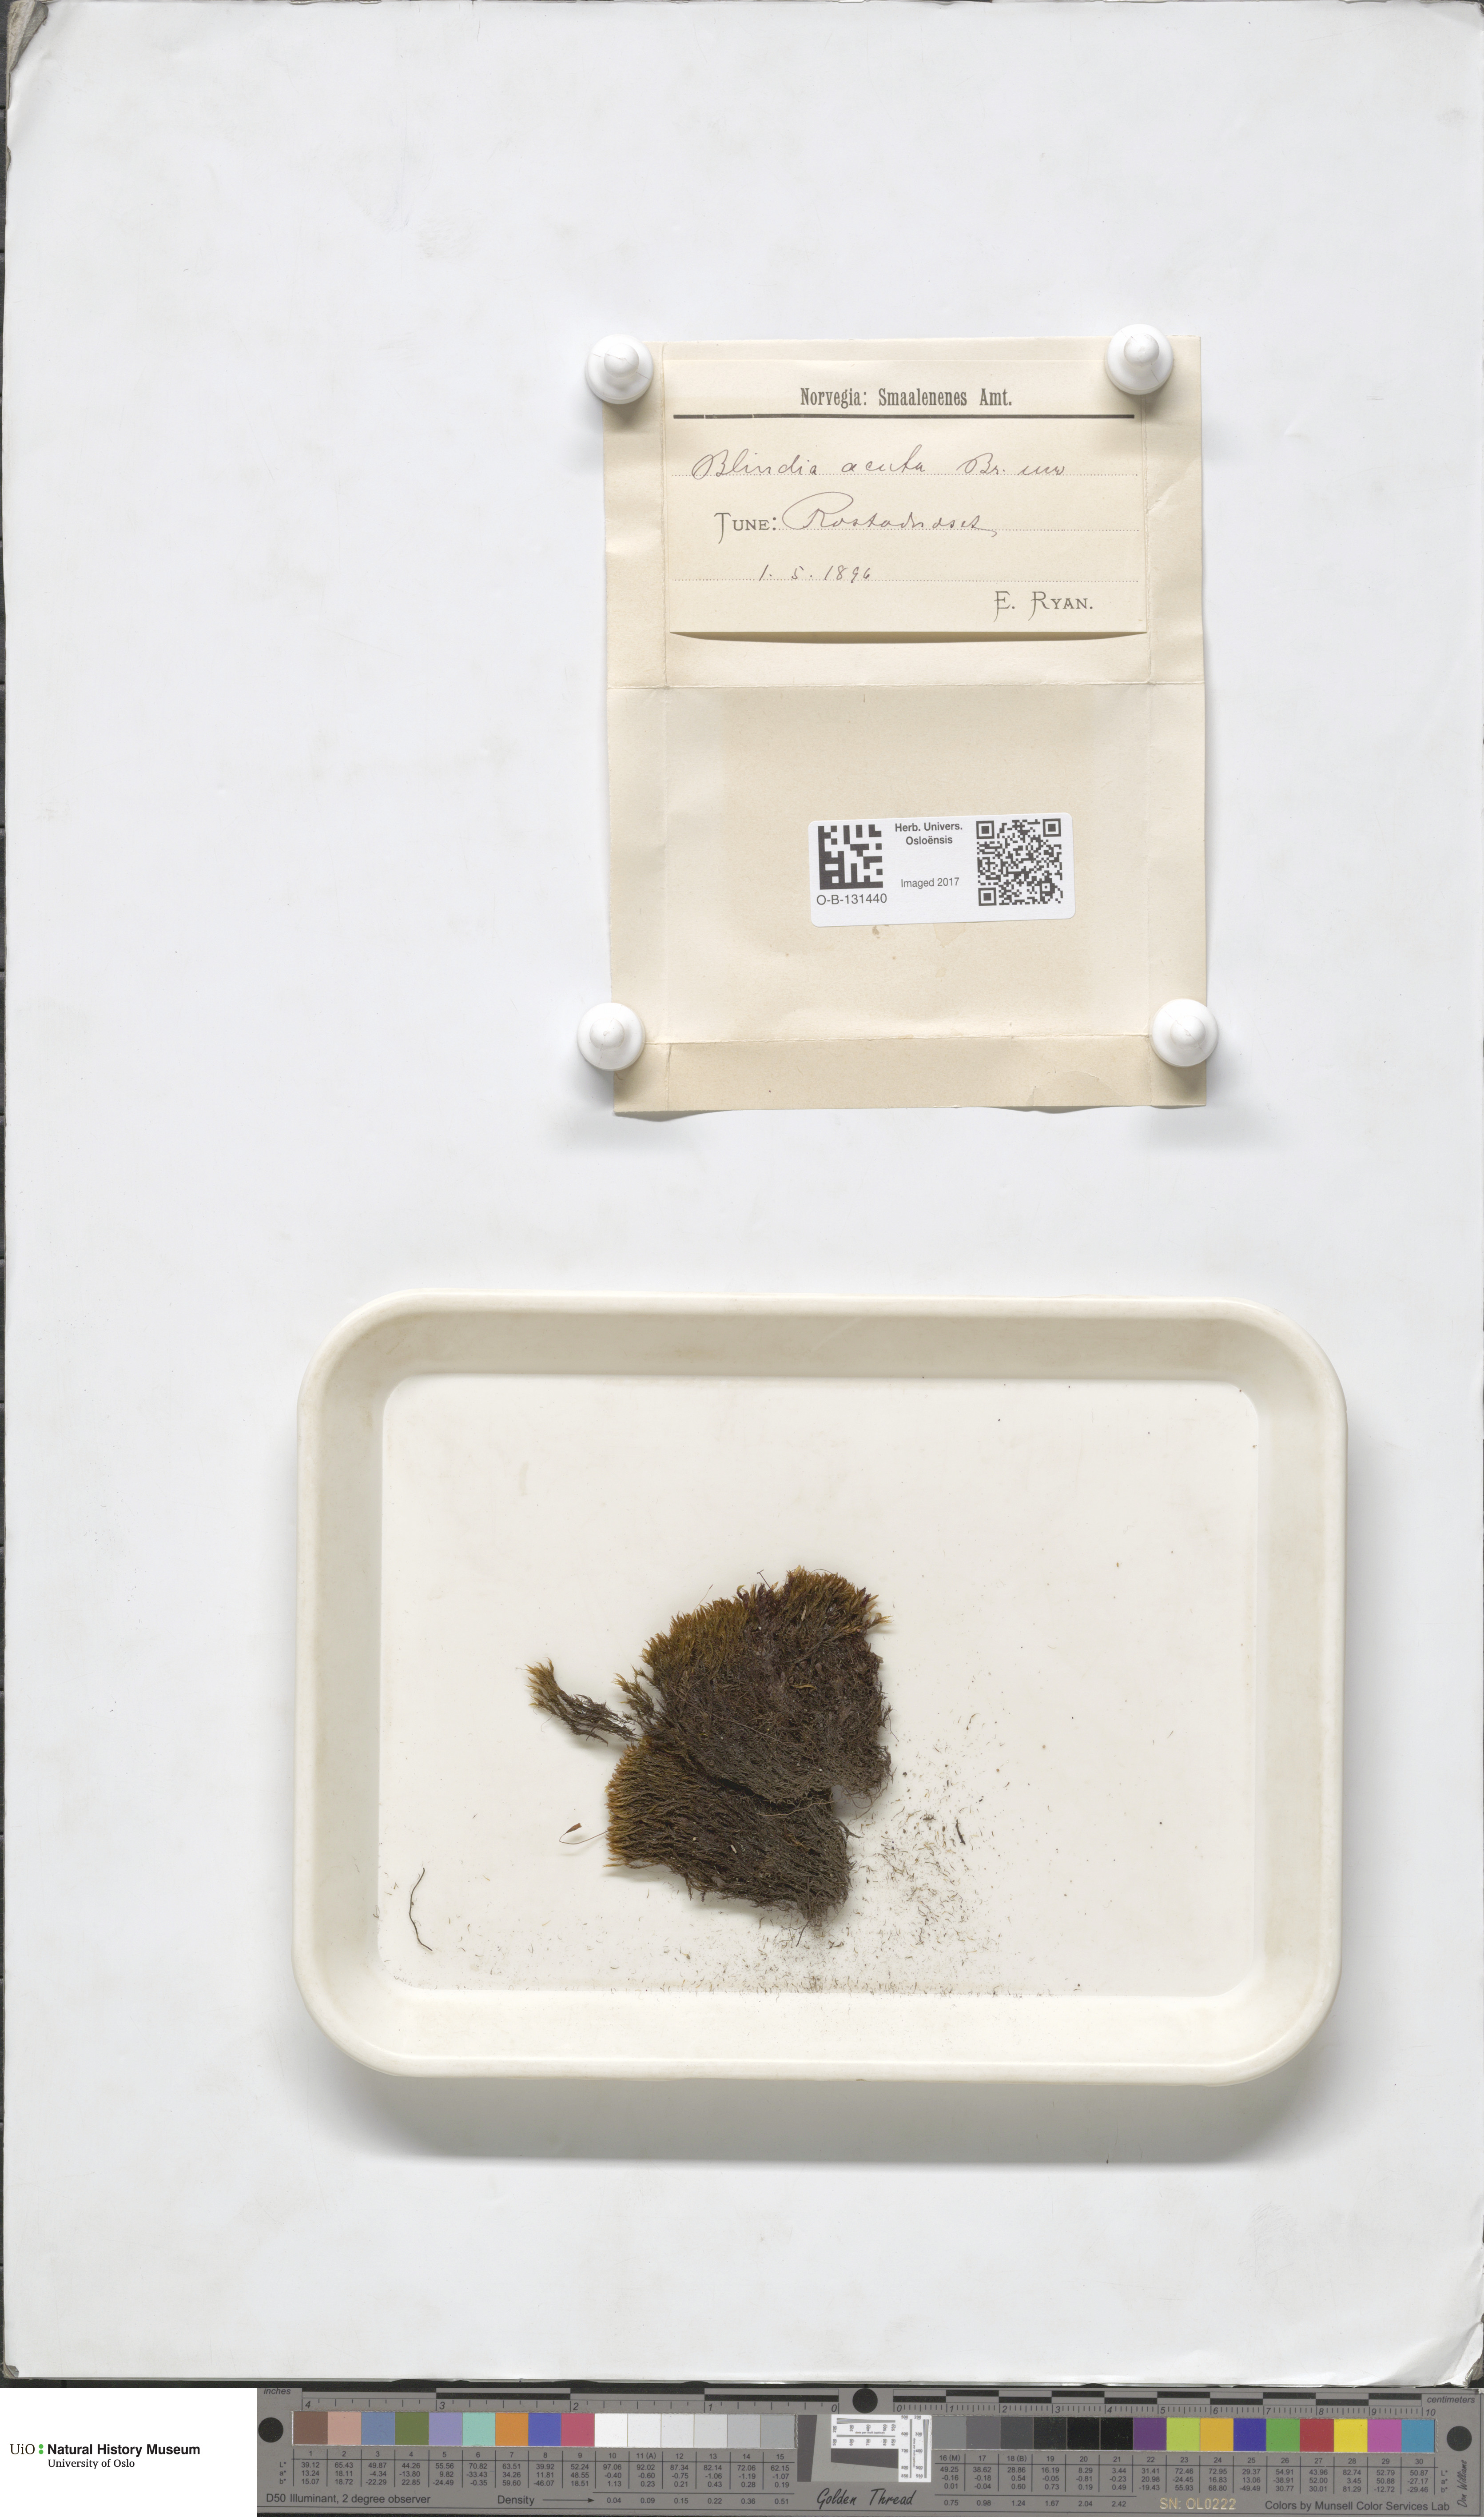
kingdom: Plantae
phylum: Bryophyta
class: Bryopsida
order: Grimmiales
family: Seligeriaceae
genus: Blindia
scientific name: Blindia acuta
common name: Sharp-leaved blind's moss
